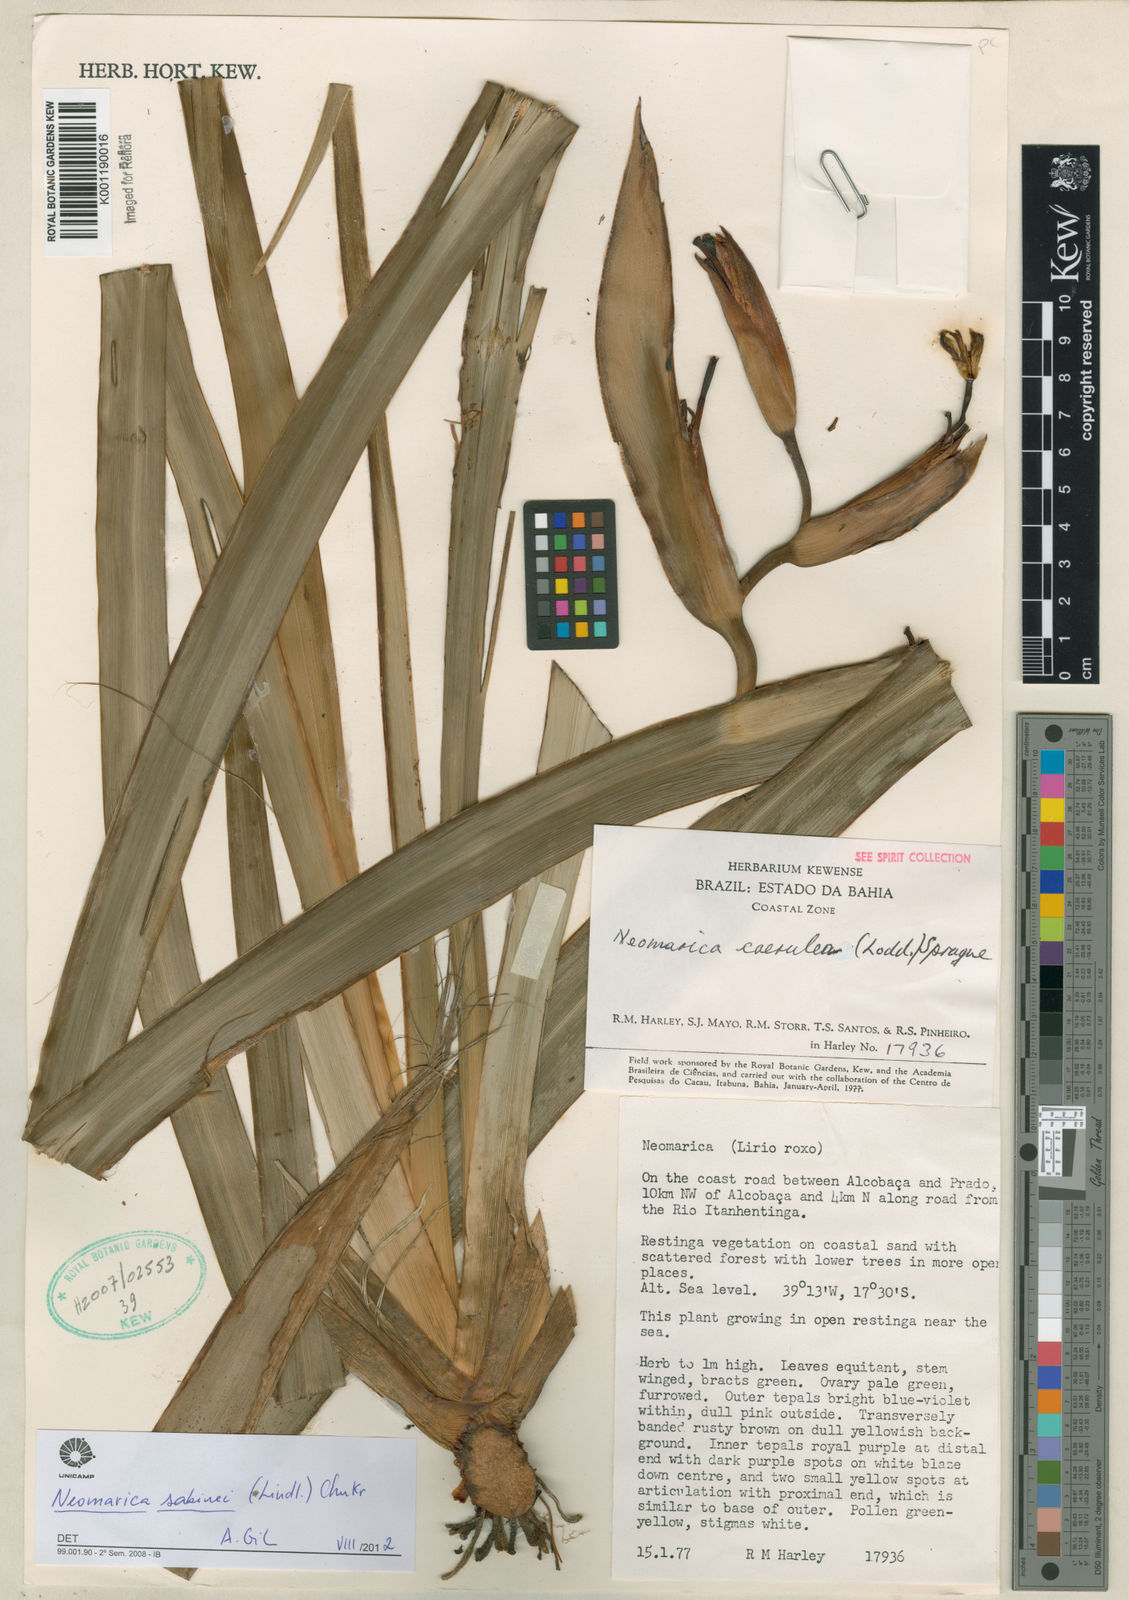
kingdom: Plantae
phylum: Tracheophyta
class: Liliopsida
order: Asparagales
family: Iridaceae
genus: Trimezia
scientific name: Trimezia sabini
